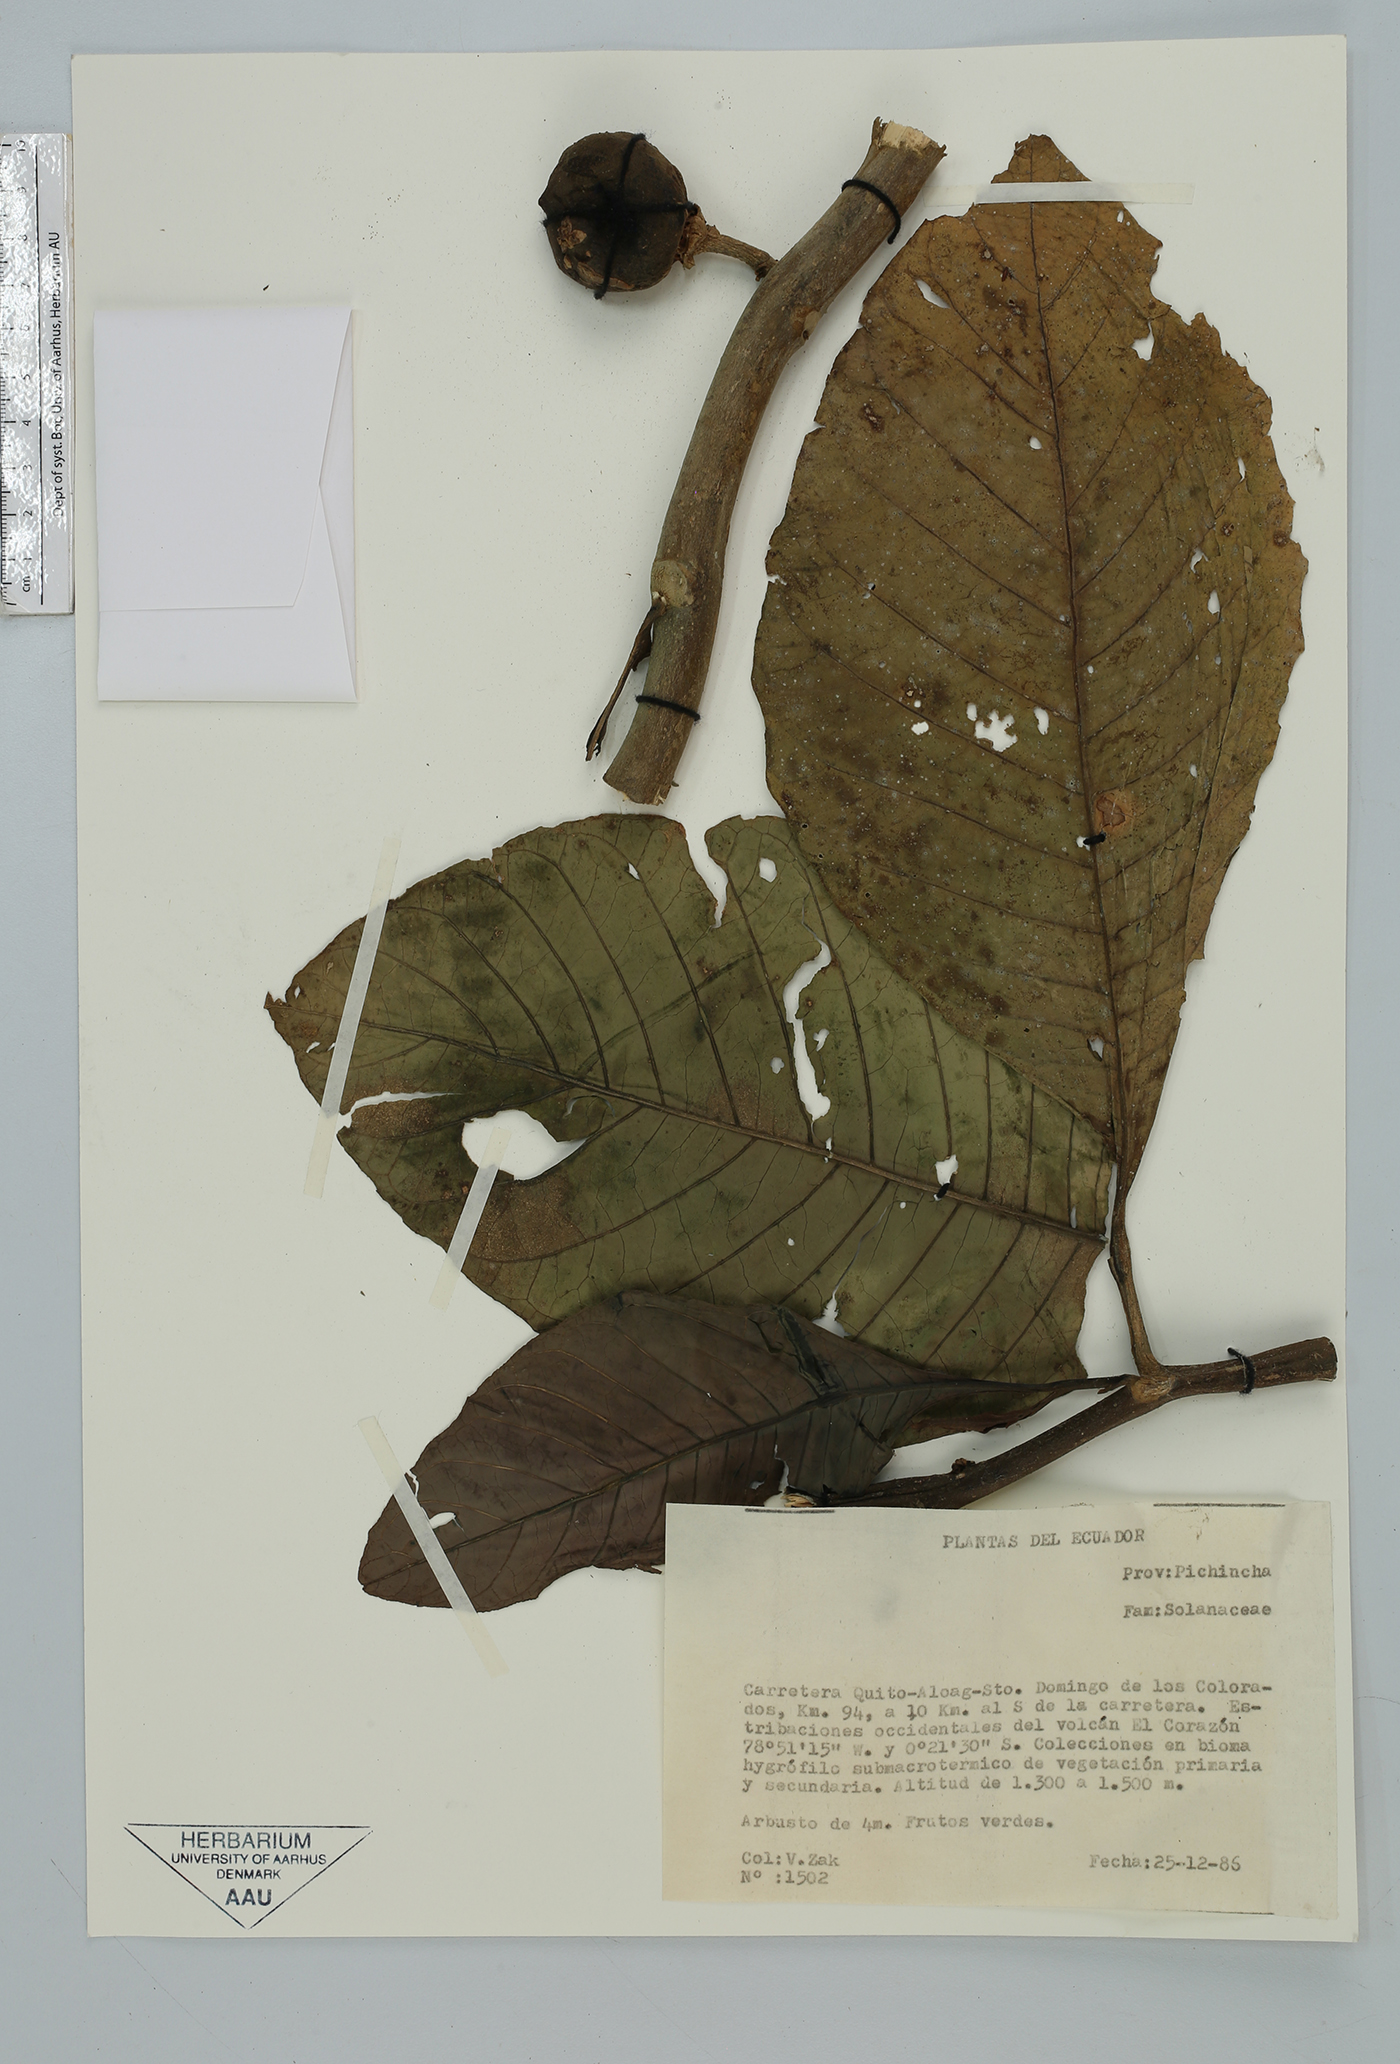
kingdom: Plantae
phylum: Tracheophyta
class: Magnoliopsida
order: Solanales
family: Solanaceae
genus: Solanum
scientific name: Solanum
